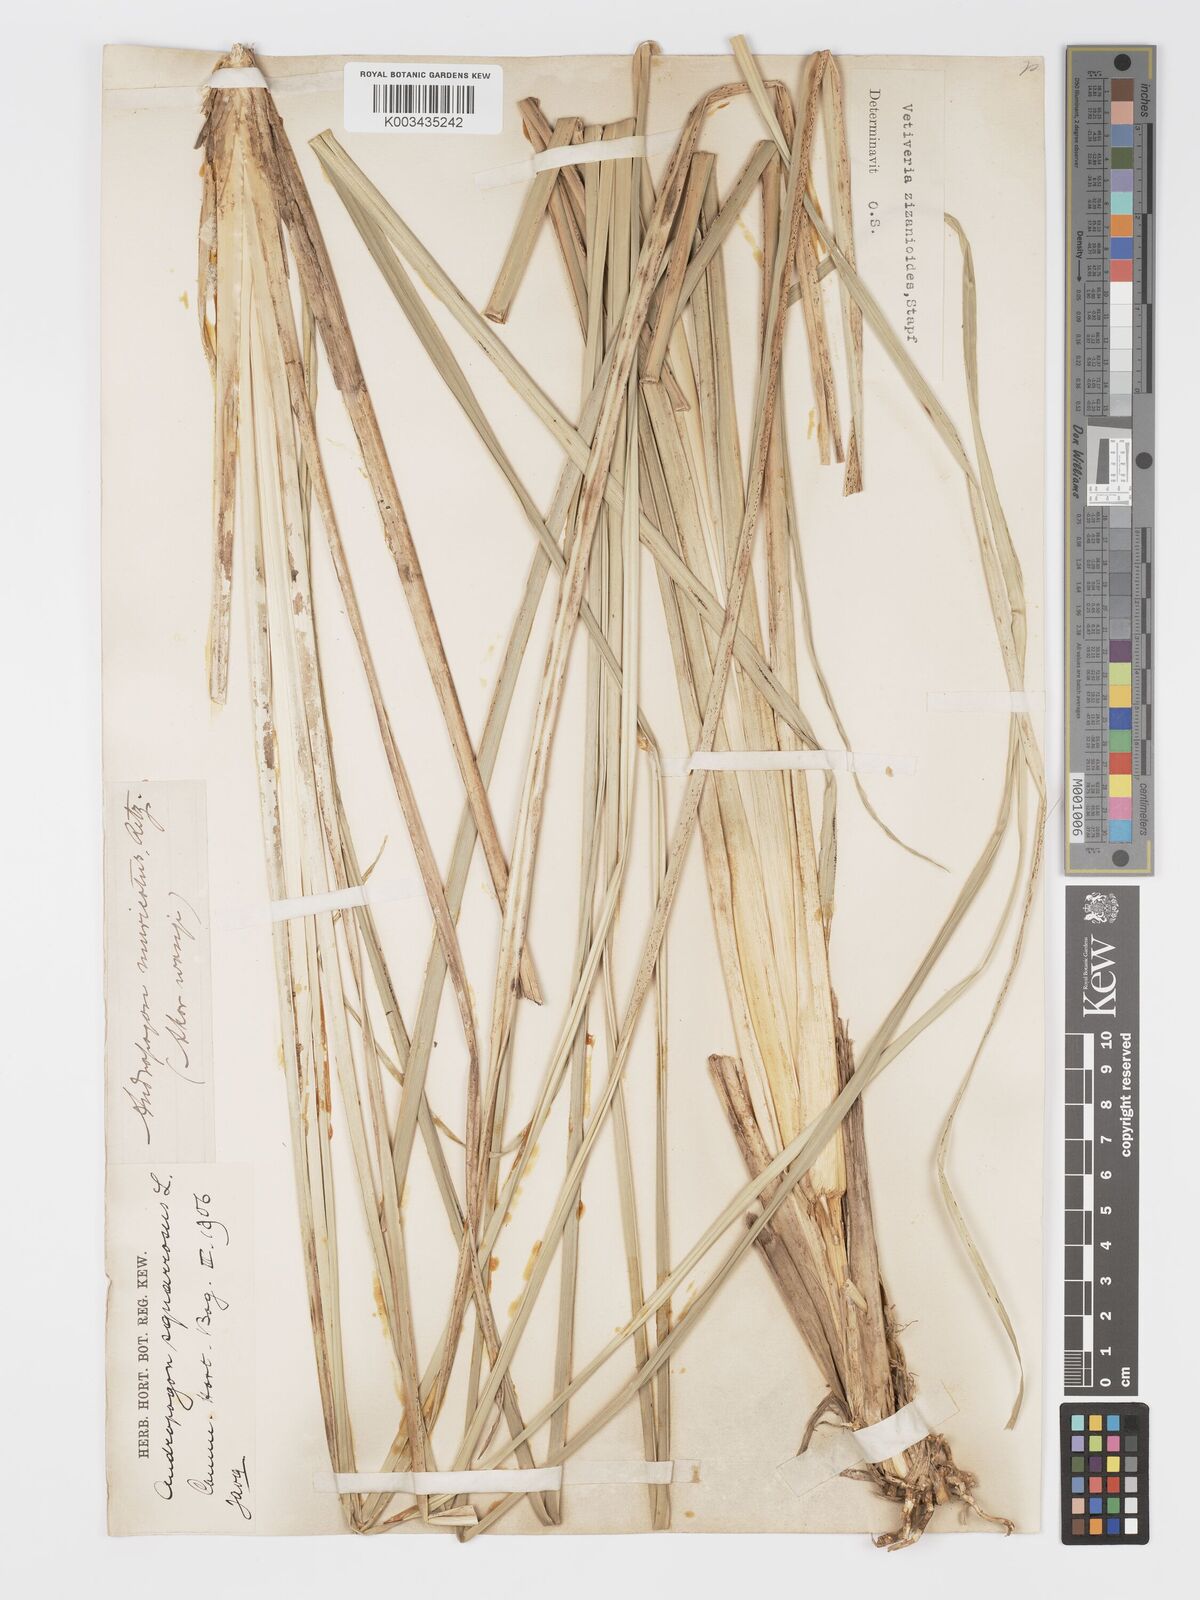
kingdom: Plantae
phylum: Tracheophyta
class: Liliopsida
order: Poales
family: Poaceae
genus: Chrysopogon
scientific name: Chrysopogon zizanioides
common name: False beardgrass
